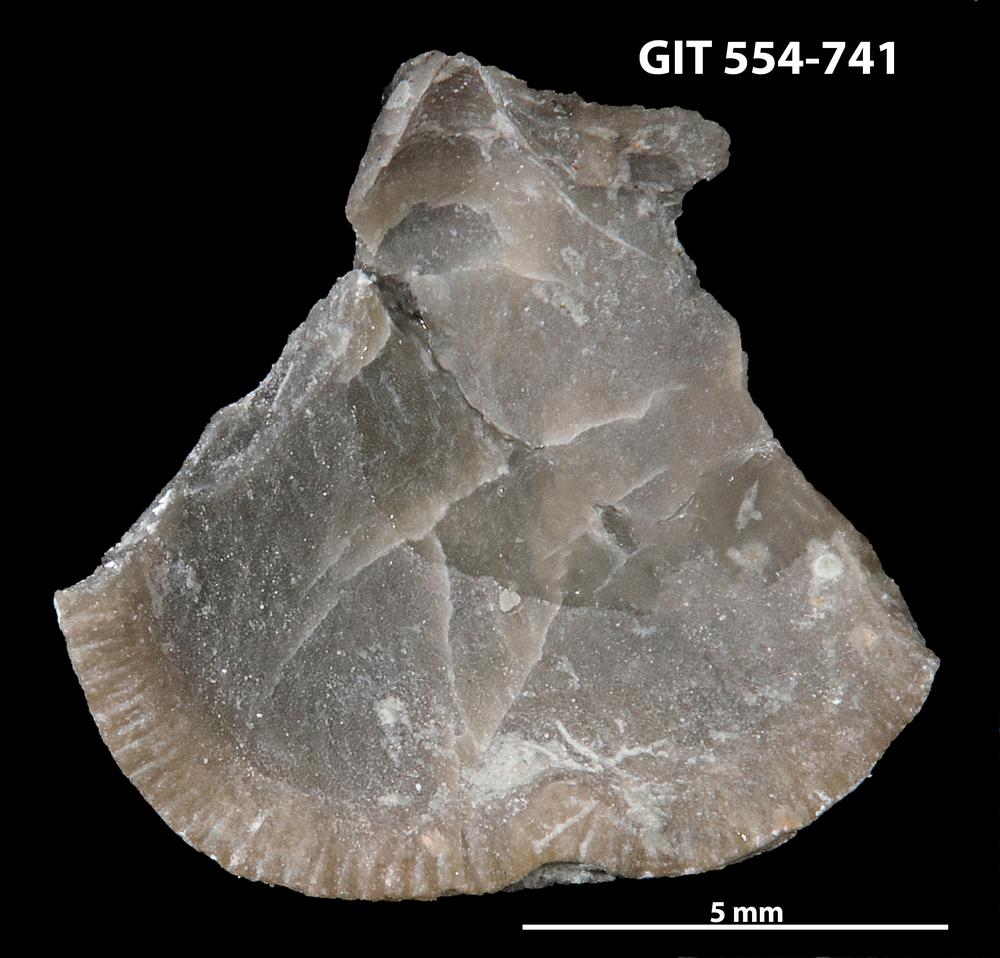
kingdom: Animalia
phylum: Brachiopoda
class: Rhynchonellata
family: Rhipidomellidae
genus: Mendacella
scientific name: Mendacella Orthis hybrida
